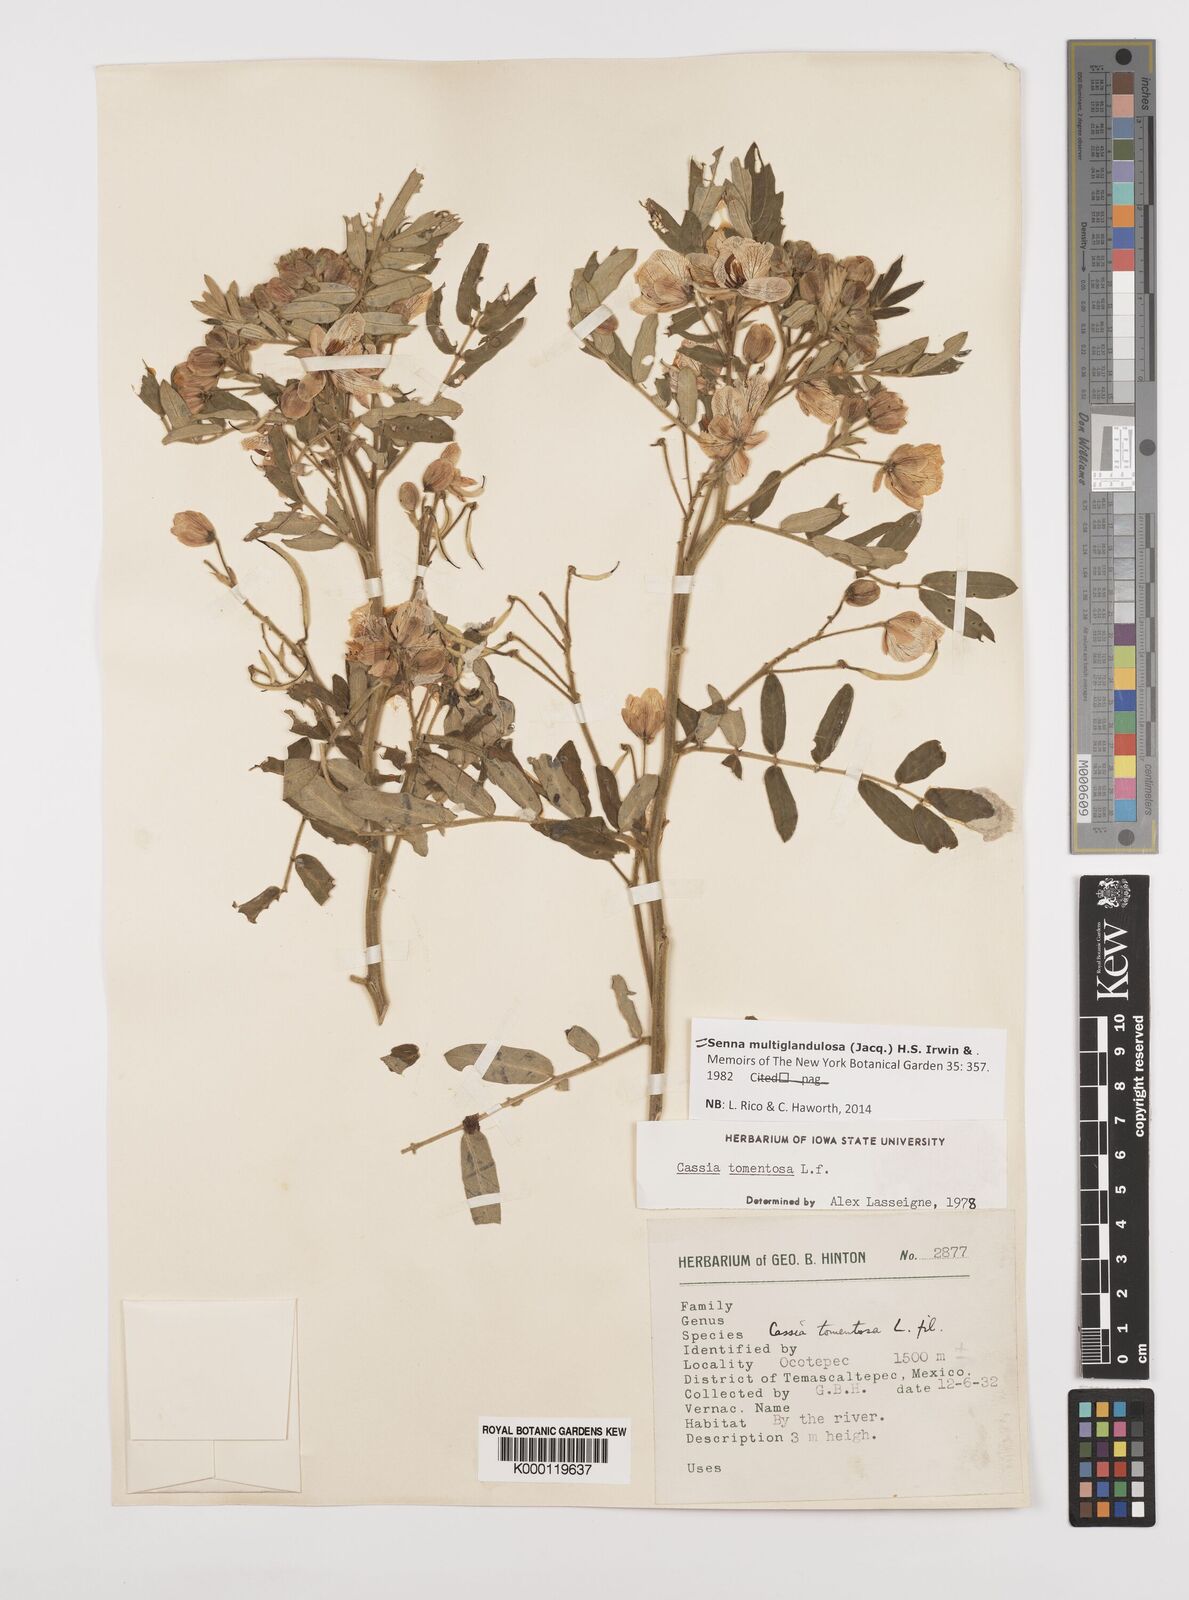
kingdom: Plantae
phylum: Tracheophyta
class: Magnoliopsida
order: Fabales
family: Fabaceae
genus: Senna
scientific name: Senna multiglandulosa
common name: Glandular senna
